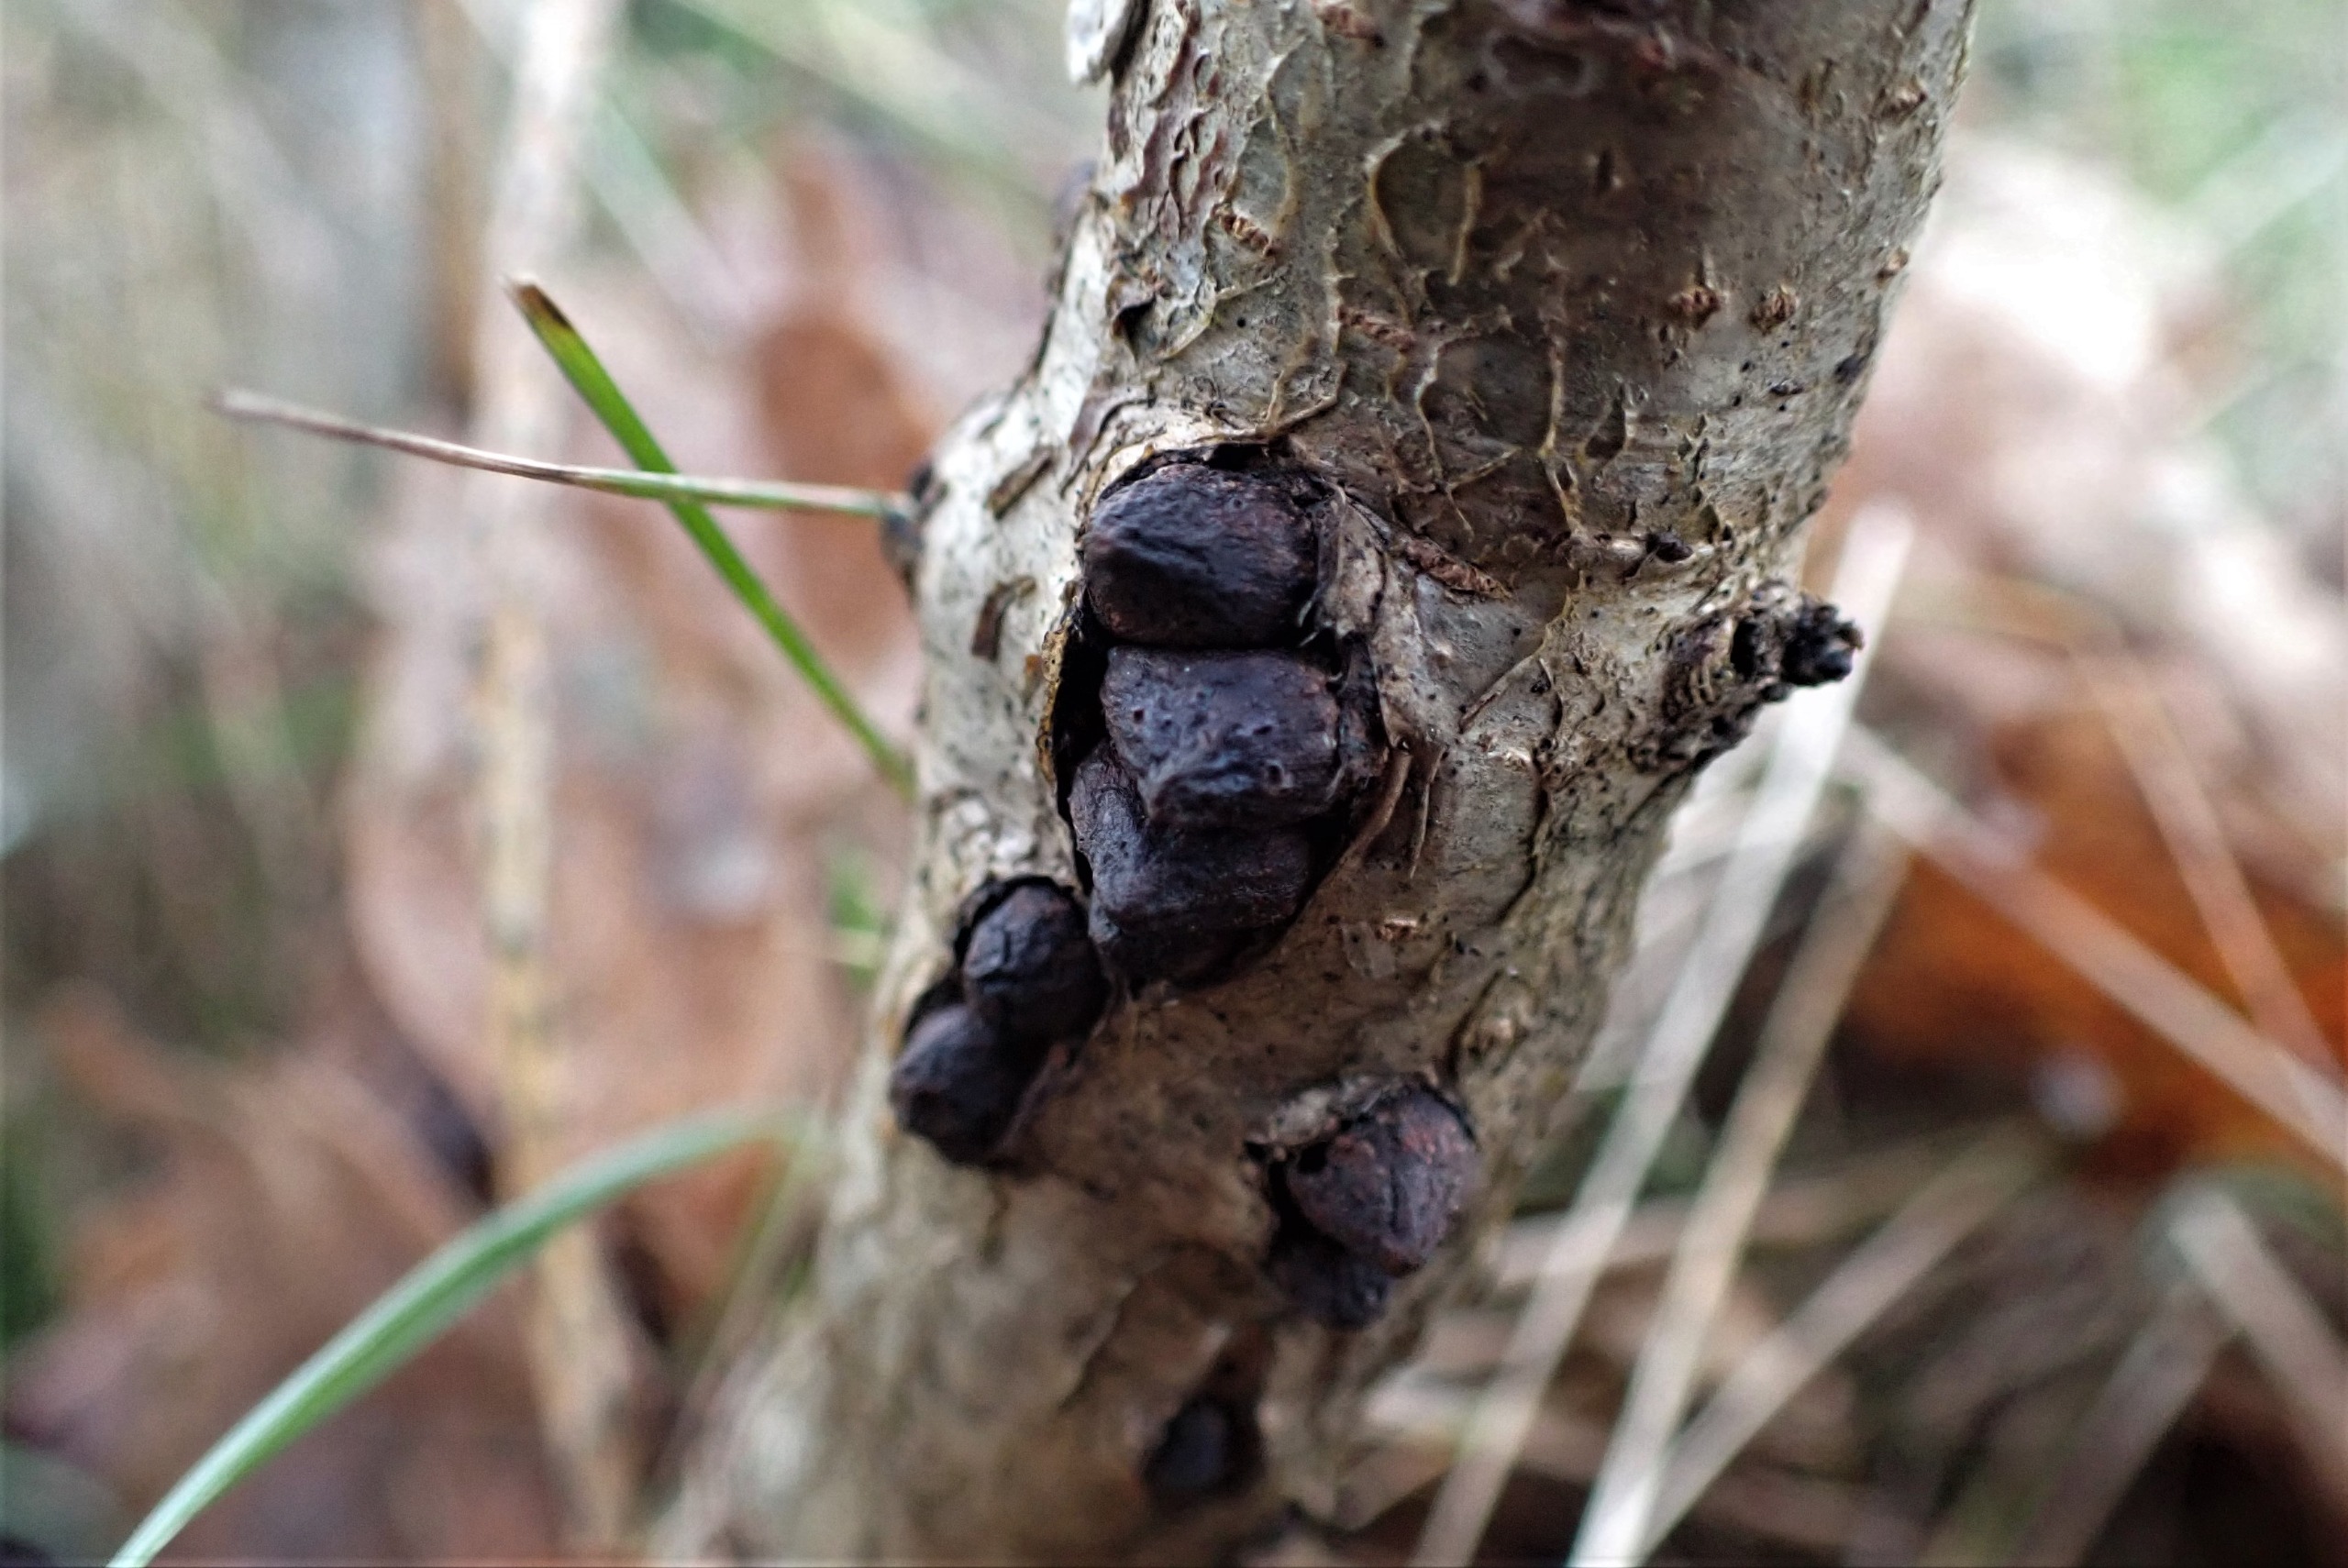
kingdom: Animalia
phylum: Arthropoda
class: Insecta
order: Hymenoptera
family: Cynipidae
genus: Andricus
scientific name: Andricus testaceipes
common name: Barkgalhveps
